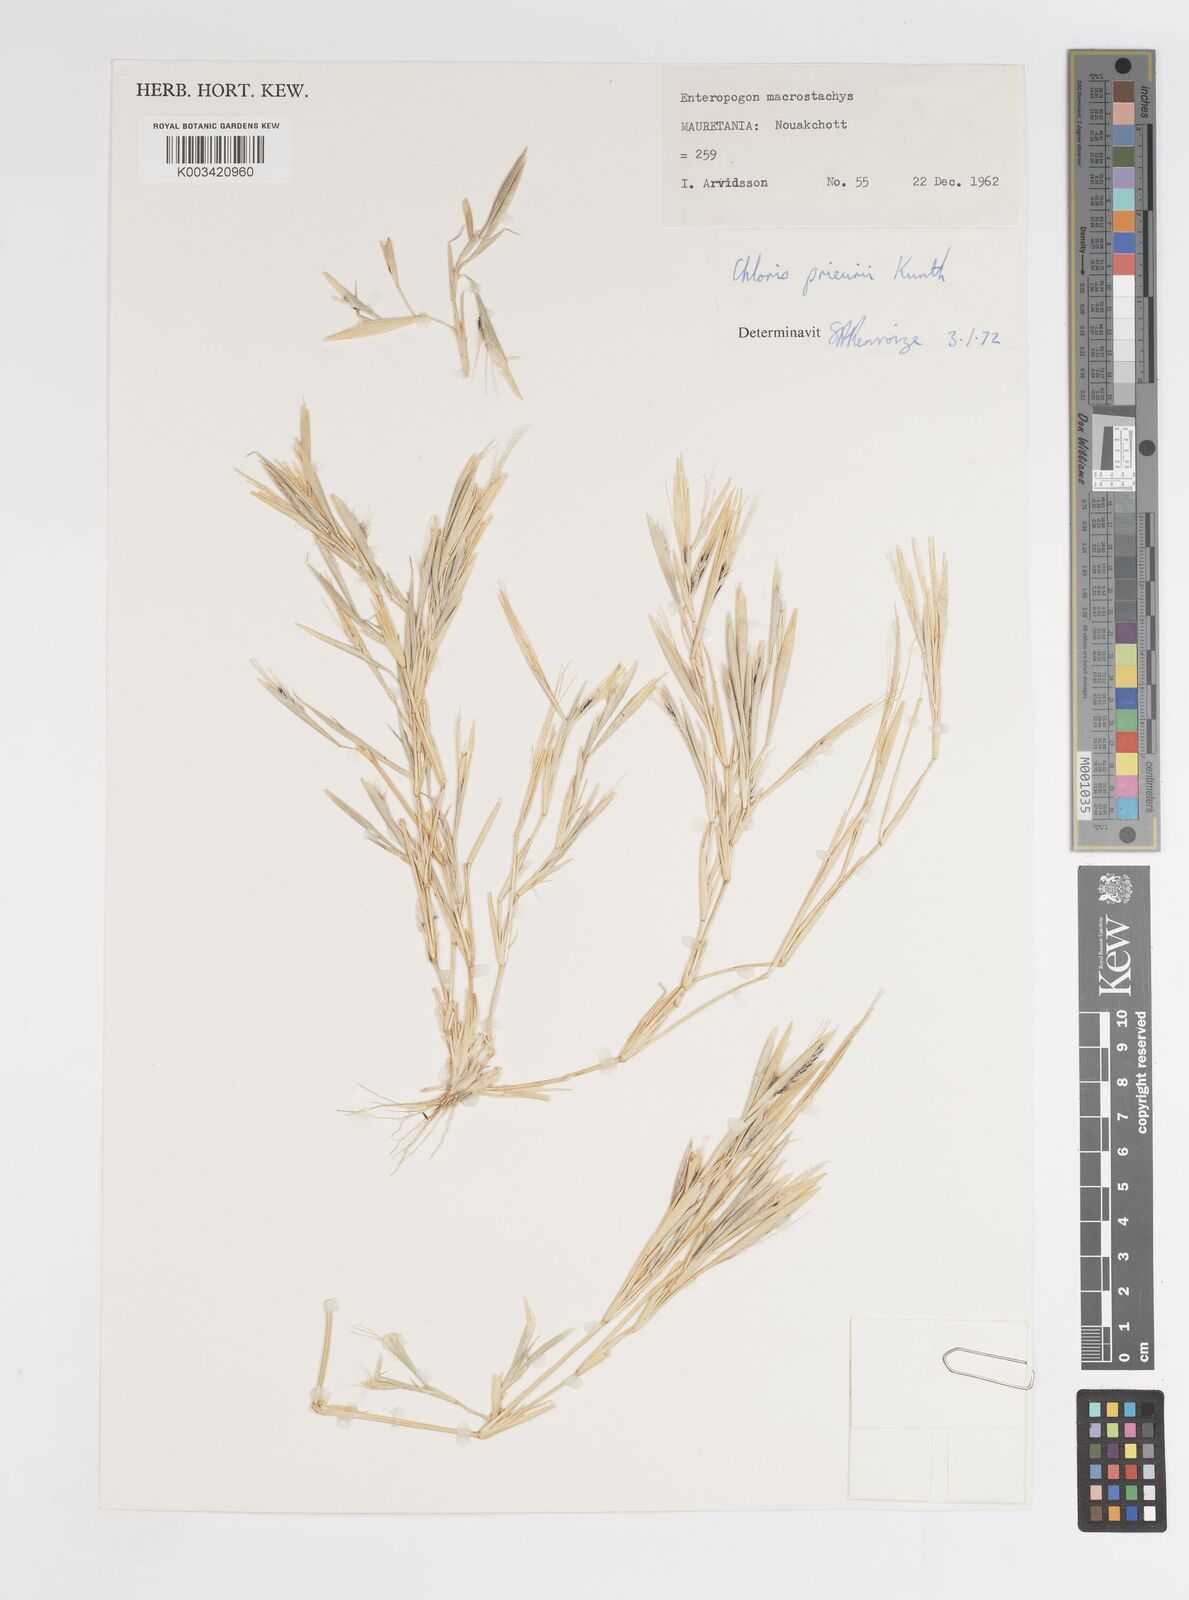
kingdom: Plantae
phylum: Tracheophyta
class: Liliopsida
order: Poales
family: Poaceae
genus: Enteropogon
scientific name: Enteropogon prieurii
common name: Prieur's umbrellagrass
